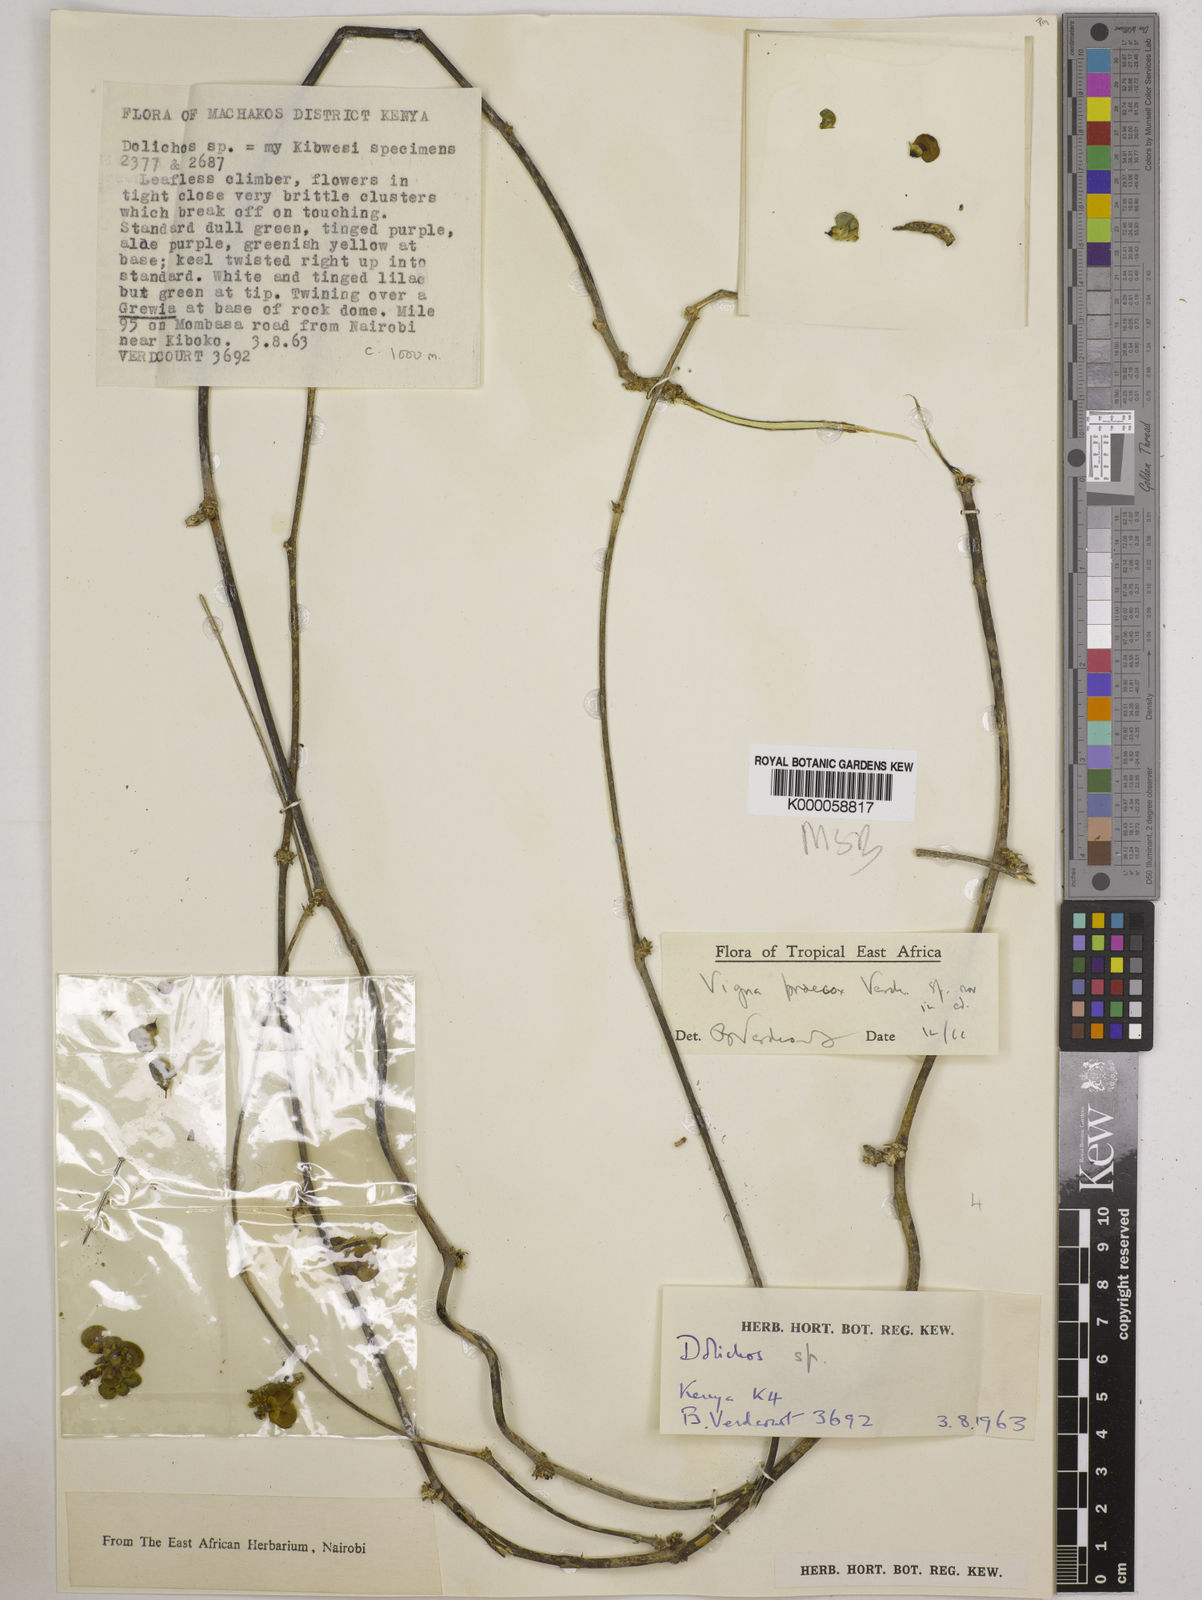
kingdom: Plantae
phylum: Tracheophyta
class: Magnoliopsida
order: Fabales
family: Fabaceae
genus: Wajira
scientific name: Wajira praecox
